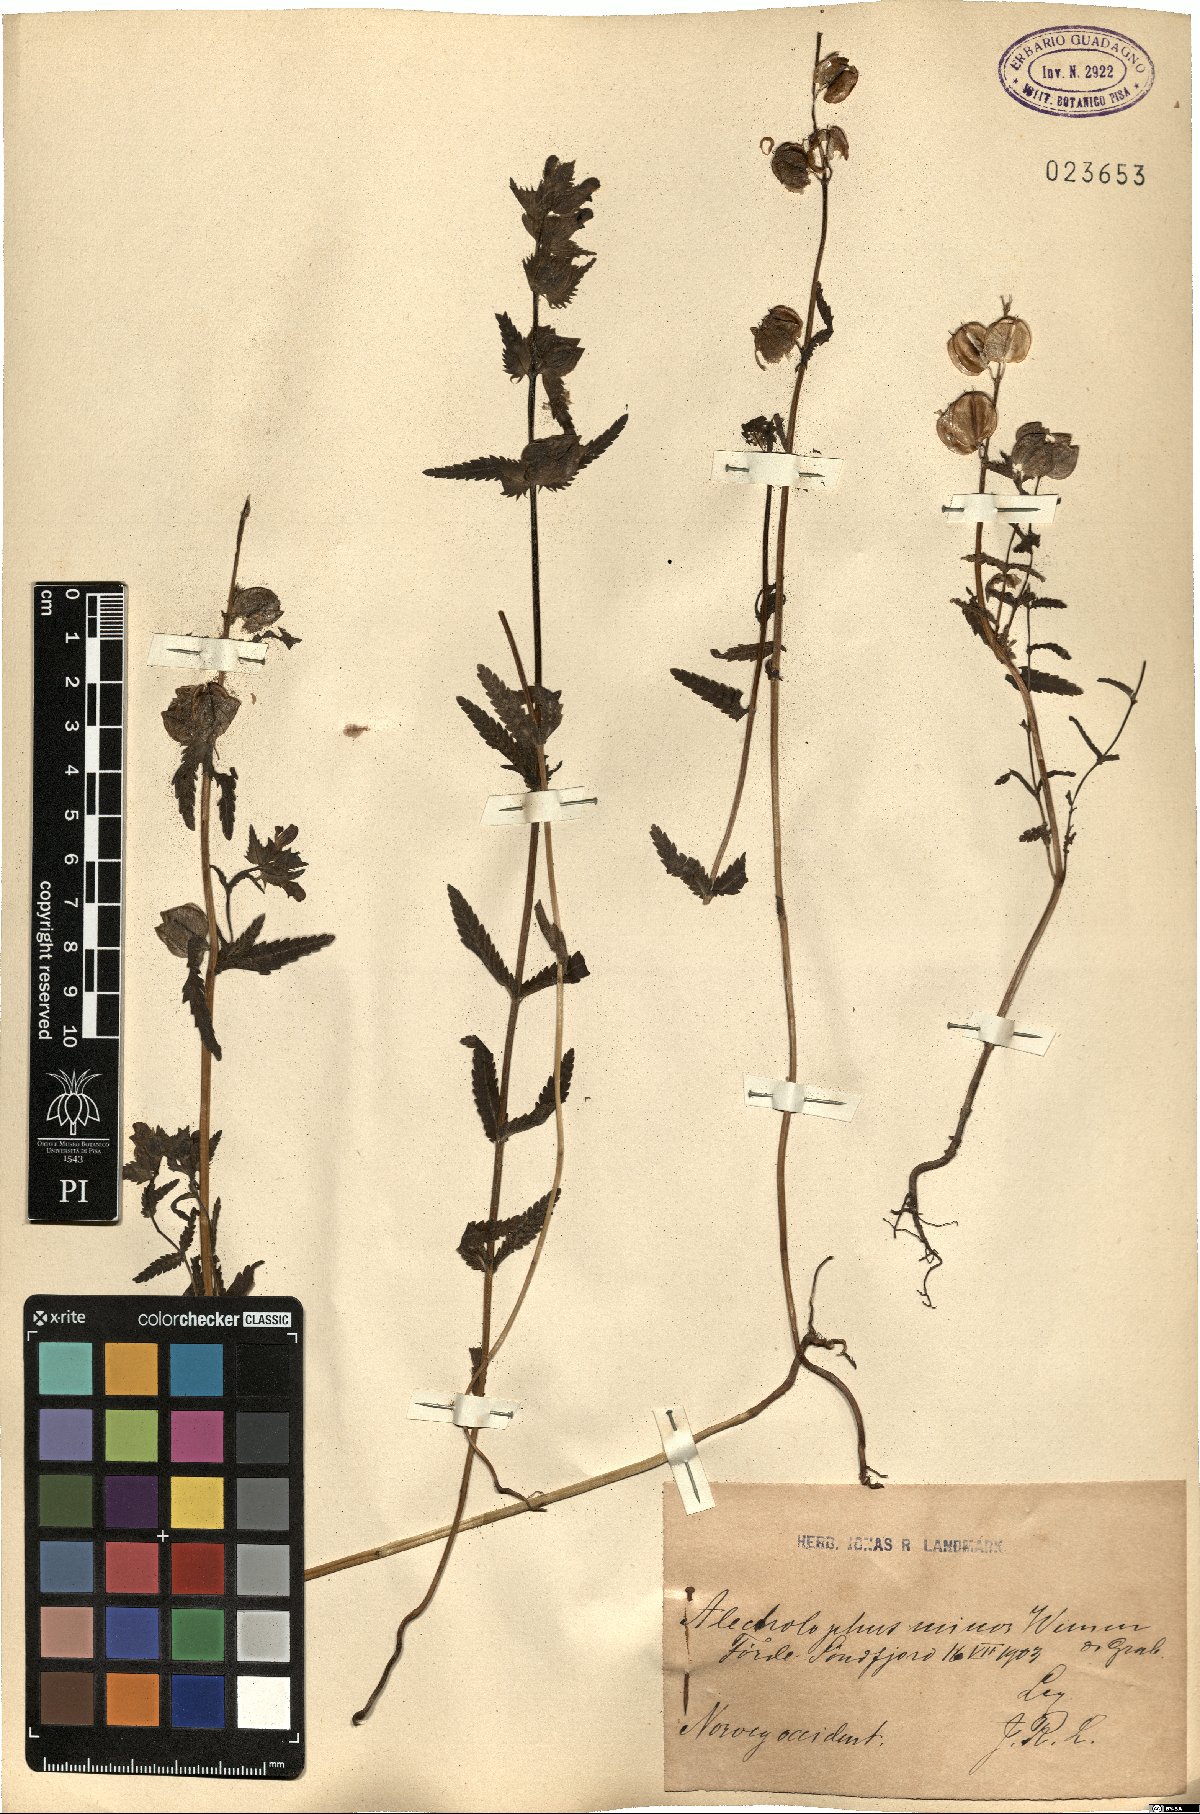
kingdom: Plantae
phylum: Tracheophyta
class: Magnoliopsida
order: Lamiales
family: Orobanchaceae
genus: Rhinanthus
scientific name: Rhinanthus minor
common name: Yellow-rattle
